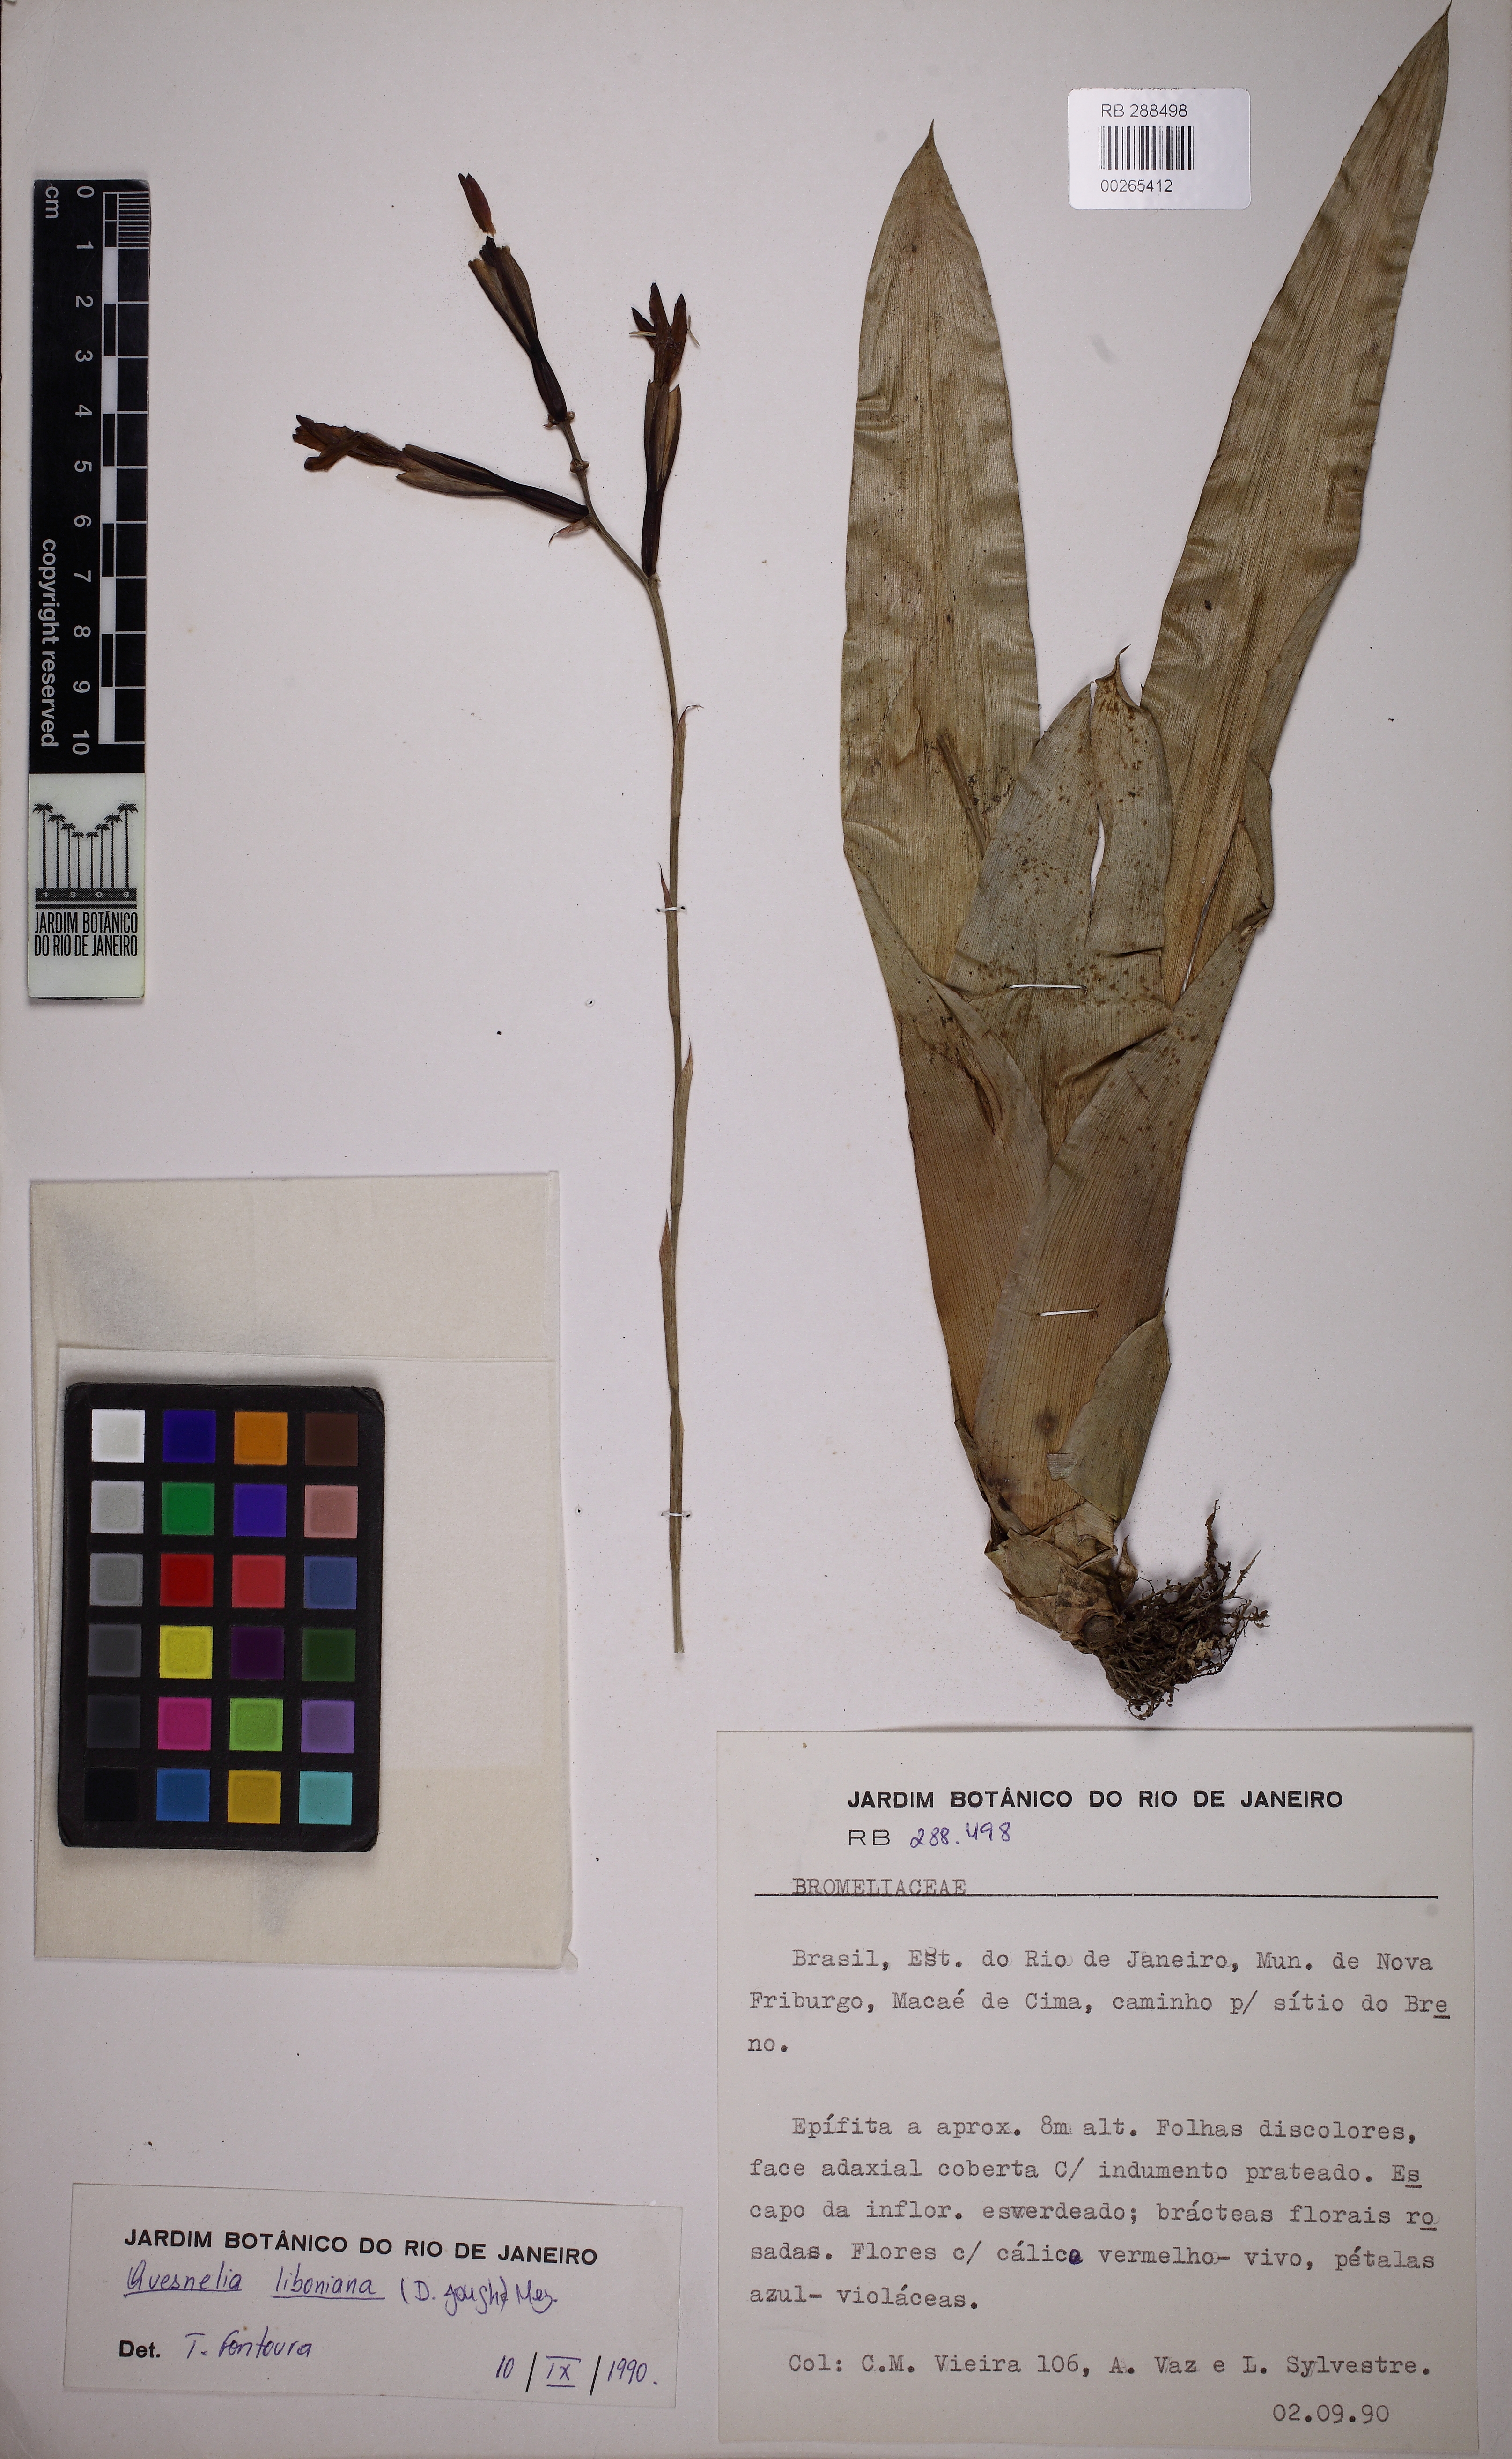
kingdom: Plantae
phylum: Tracheophyta
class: Liliopsida
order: Poales
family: Bromeliaceae
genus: Quesnelia
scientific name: Quesnelia liboniana
